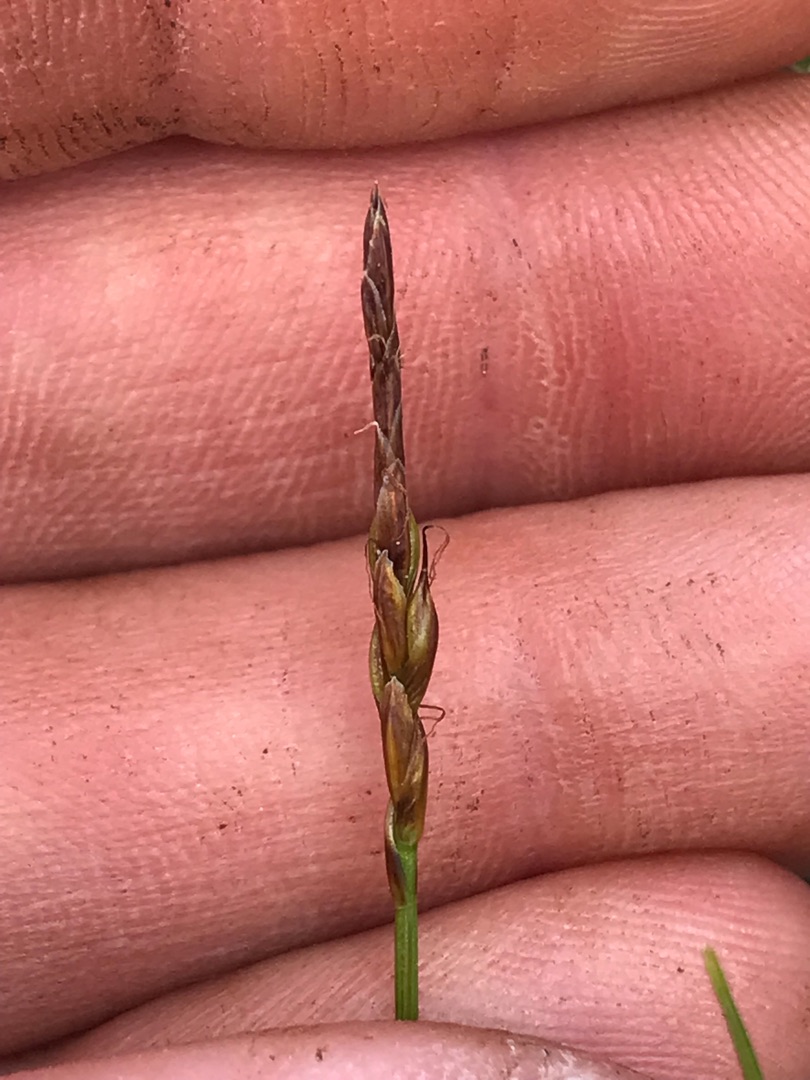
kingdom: Plantae
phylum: Tracheophyta
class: Liliopsida
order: Poales
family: Cyperaceae
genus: Carex
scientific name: Carex pulicaris
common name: Loppe-star
